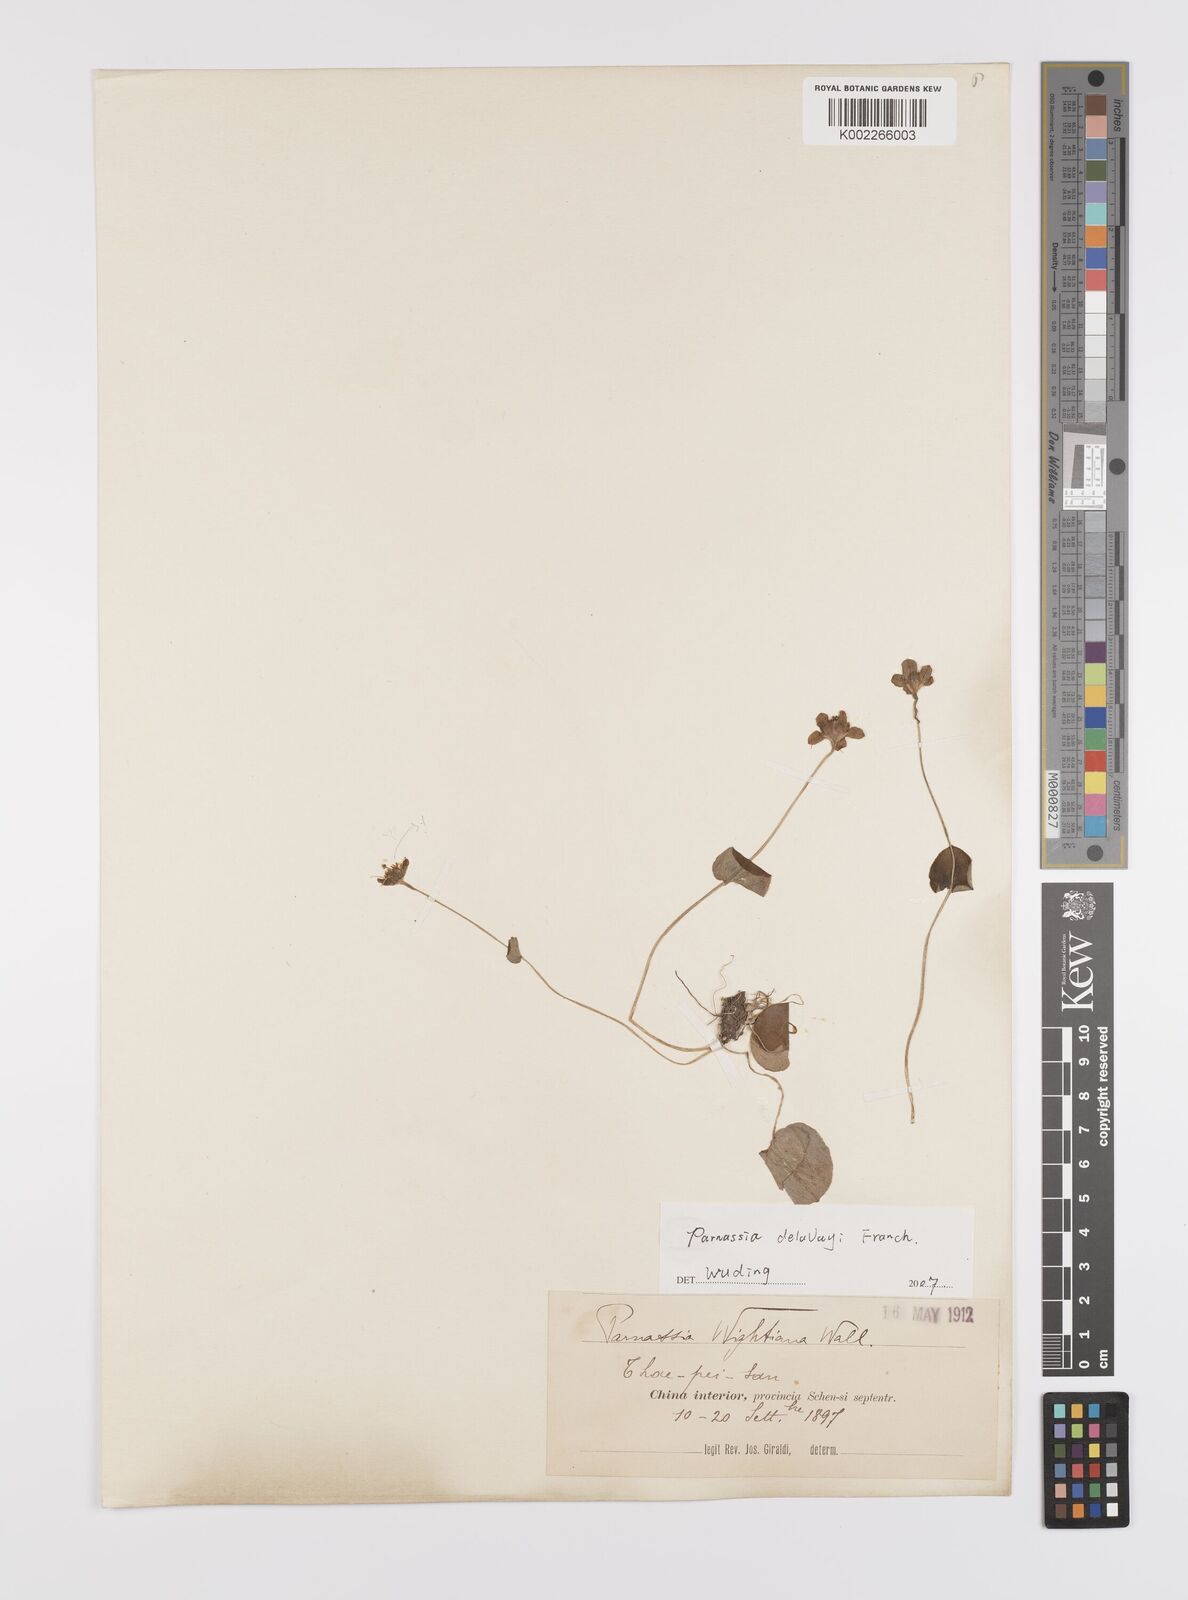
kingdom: Plantae
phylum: Tracheophyta
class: Magnoliopsida
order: Celastrales
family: Parnassiaceae
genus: Parnassia
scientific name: Parnassia wightiana
